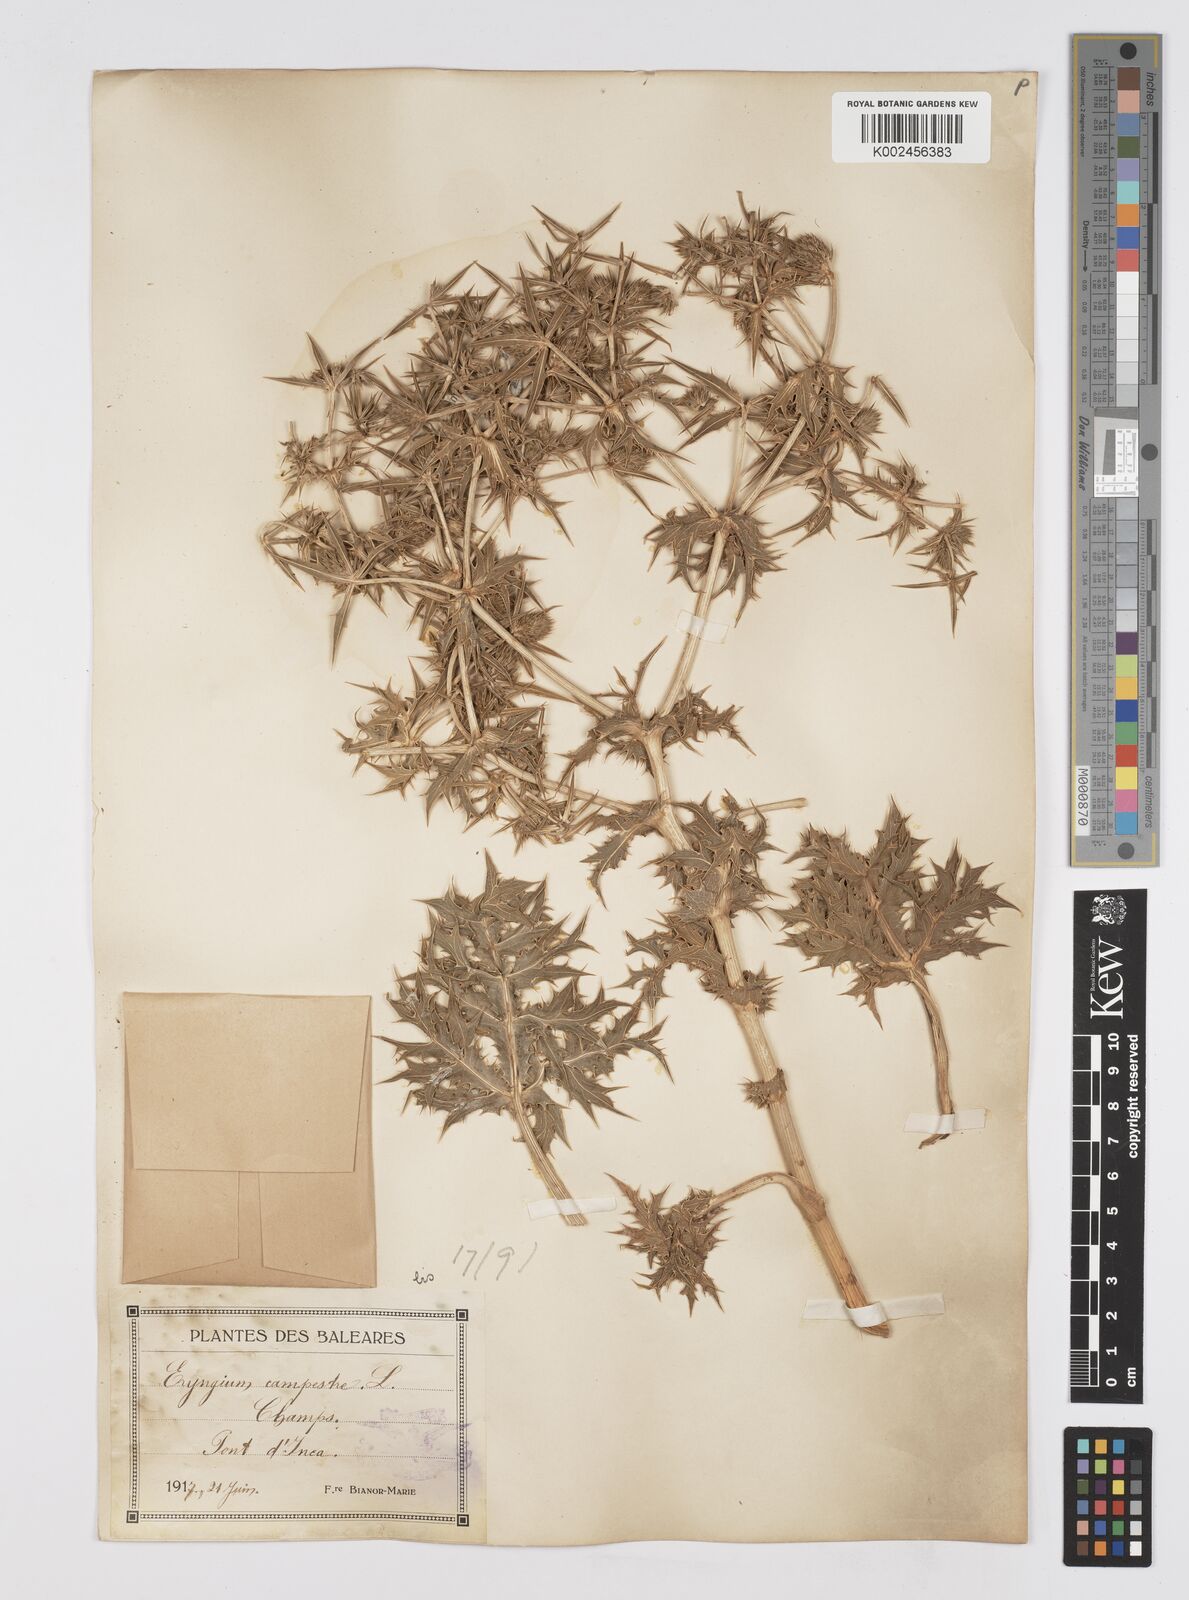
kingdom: Plantae
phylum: Tracheophyta
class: Magnoliopsida
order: Apiales
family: Apiaceae
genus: Eryngium
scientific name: Eryngium campestre
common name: Field eryngo
